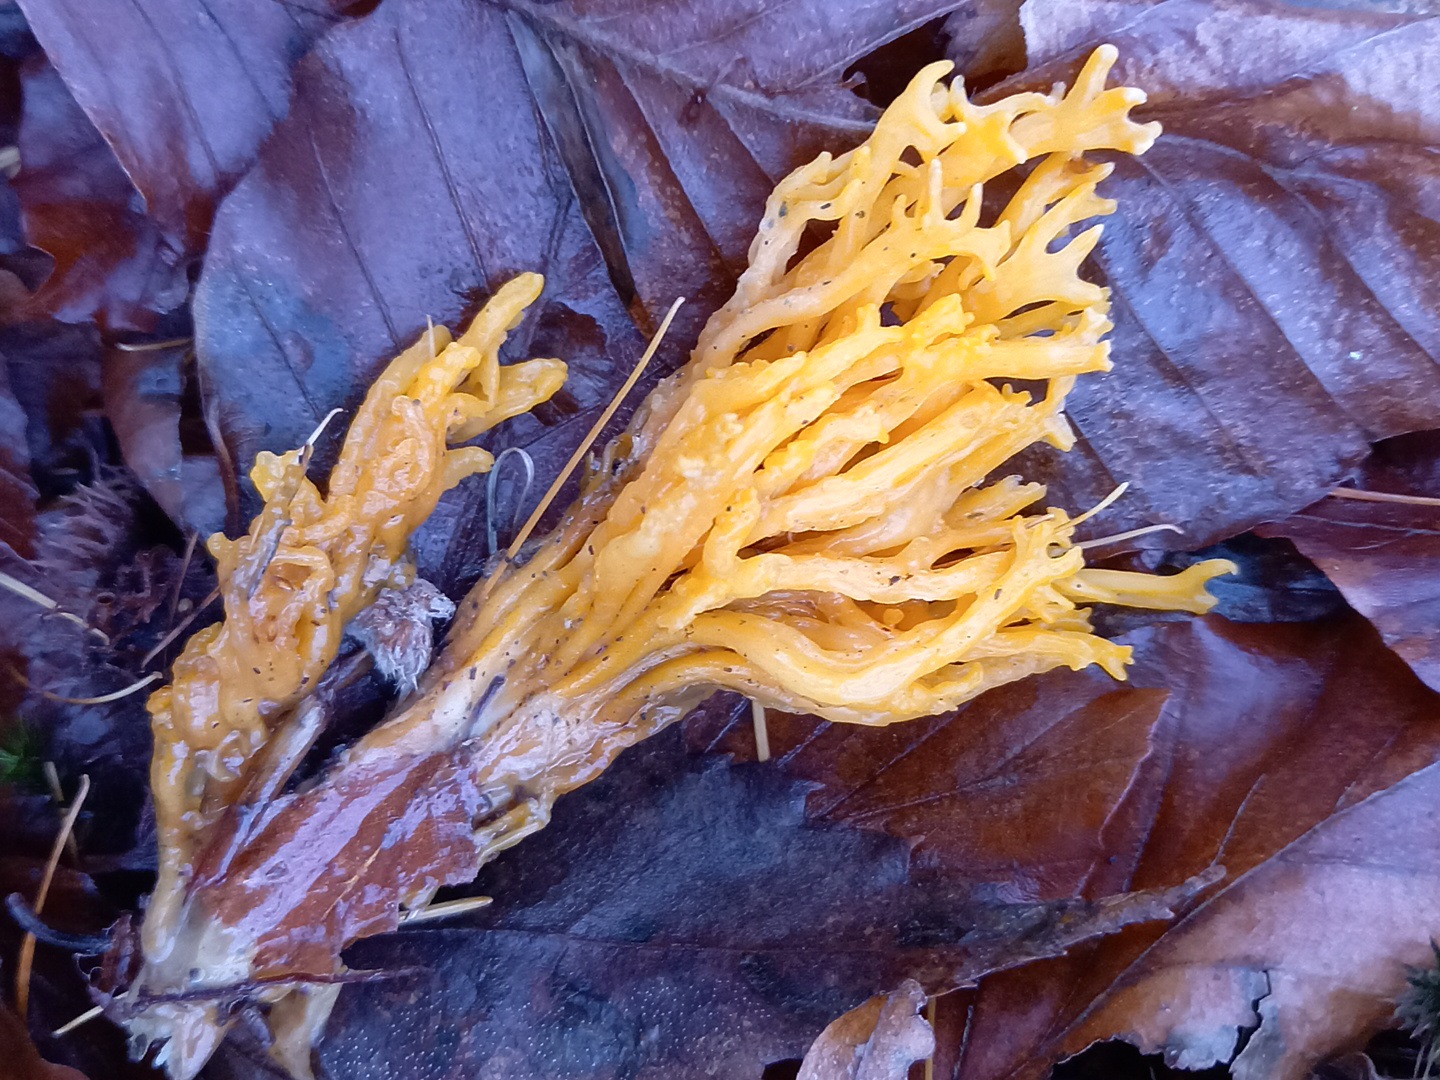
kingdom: Fungi
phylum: Basidiomycota
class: Dacrymycetes
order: Dacrymycetales
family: Dacrymycetaceae
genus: Calocera
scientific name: Calocera viscosa
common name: almindelig guldgaffel
